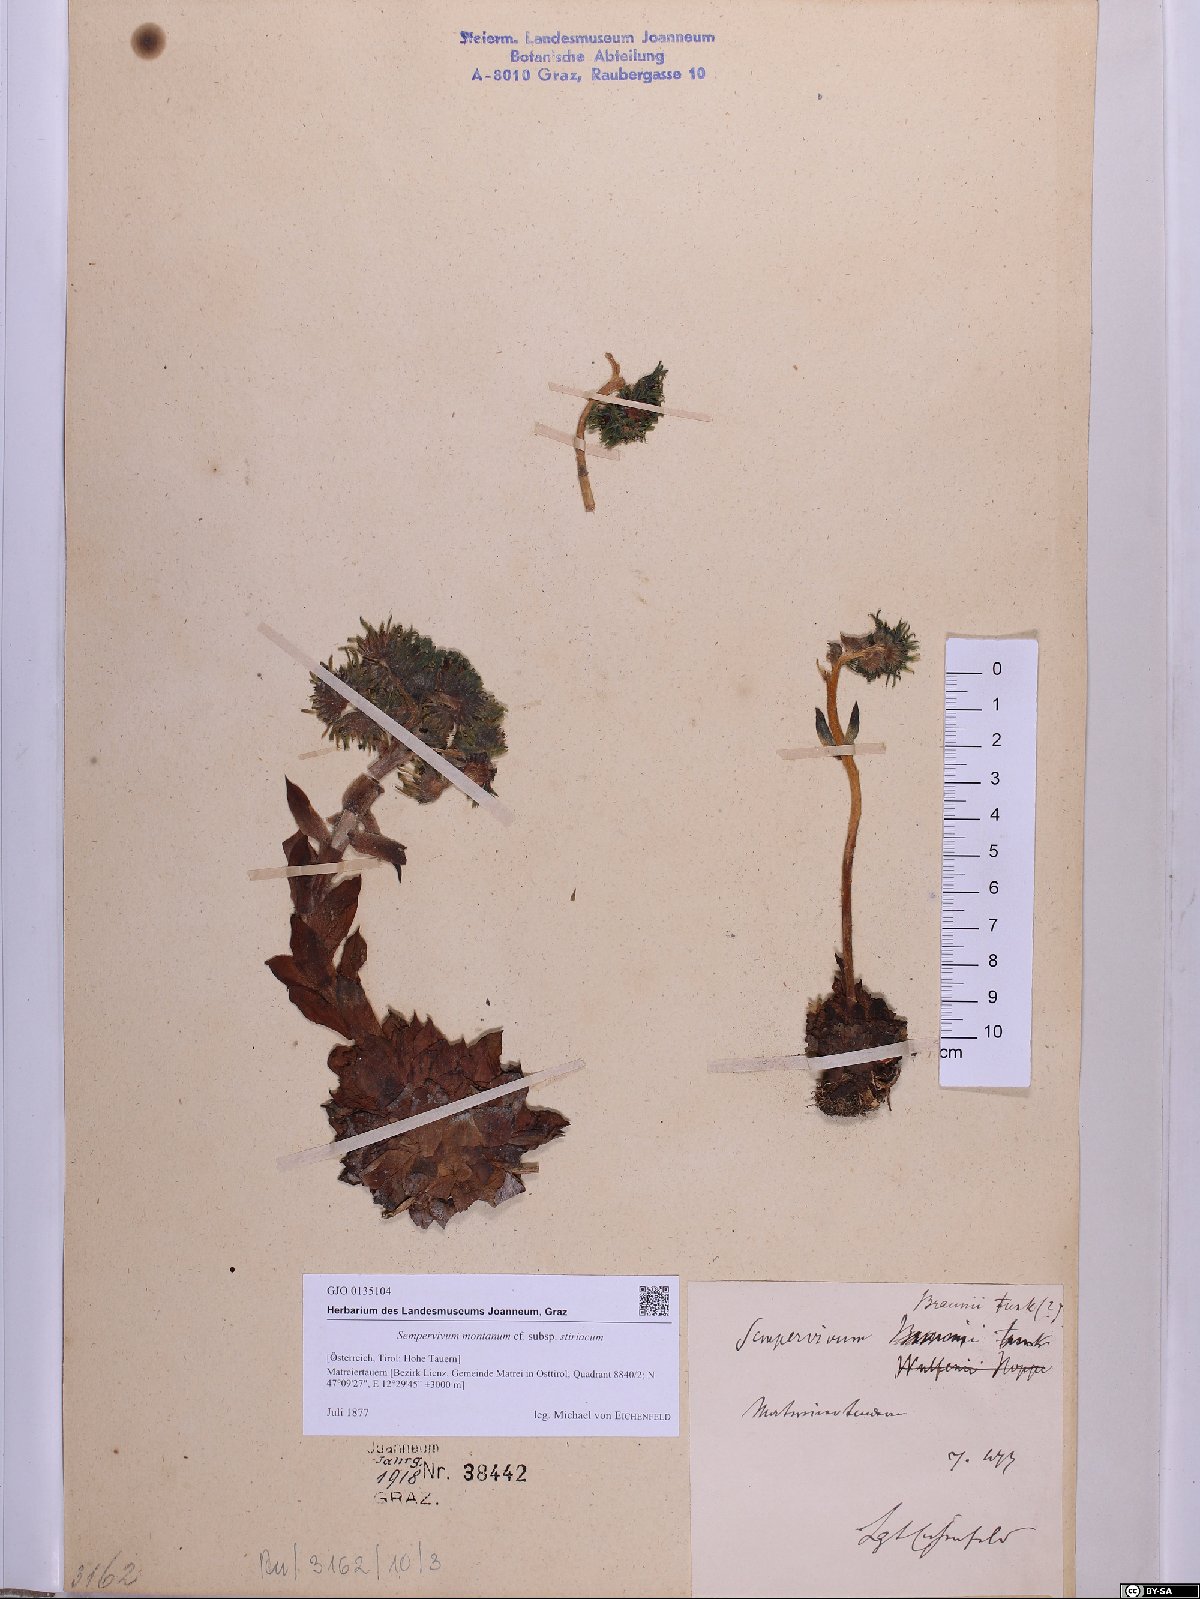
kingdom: Plantae
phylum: Tracheophyta
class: Magnoliopsida
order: Saxifragales
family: Crassulaceae
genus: Sempervivum
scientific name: Sempervivum montanum
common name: Mountain house-leek
